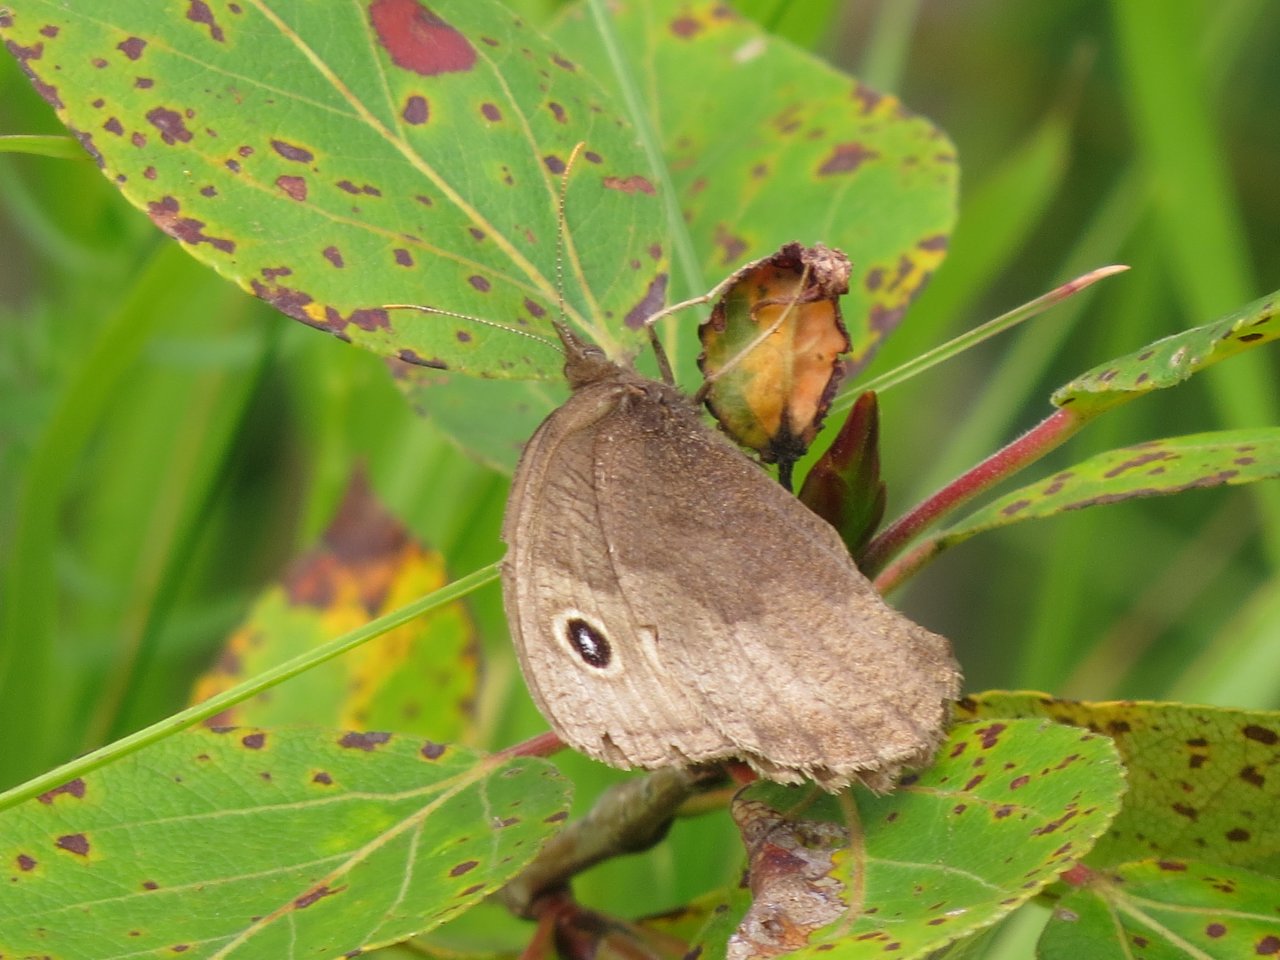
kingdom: Animalia
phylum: Arthropoda
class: Insecta
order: Lepidoptera
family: Nymphalidae
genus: Cercyonis
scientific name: Cercyonis pegala
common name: Common Wood-Nymph
